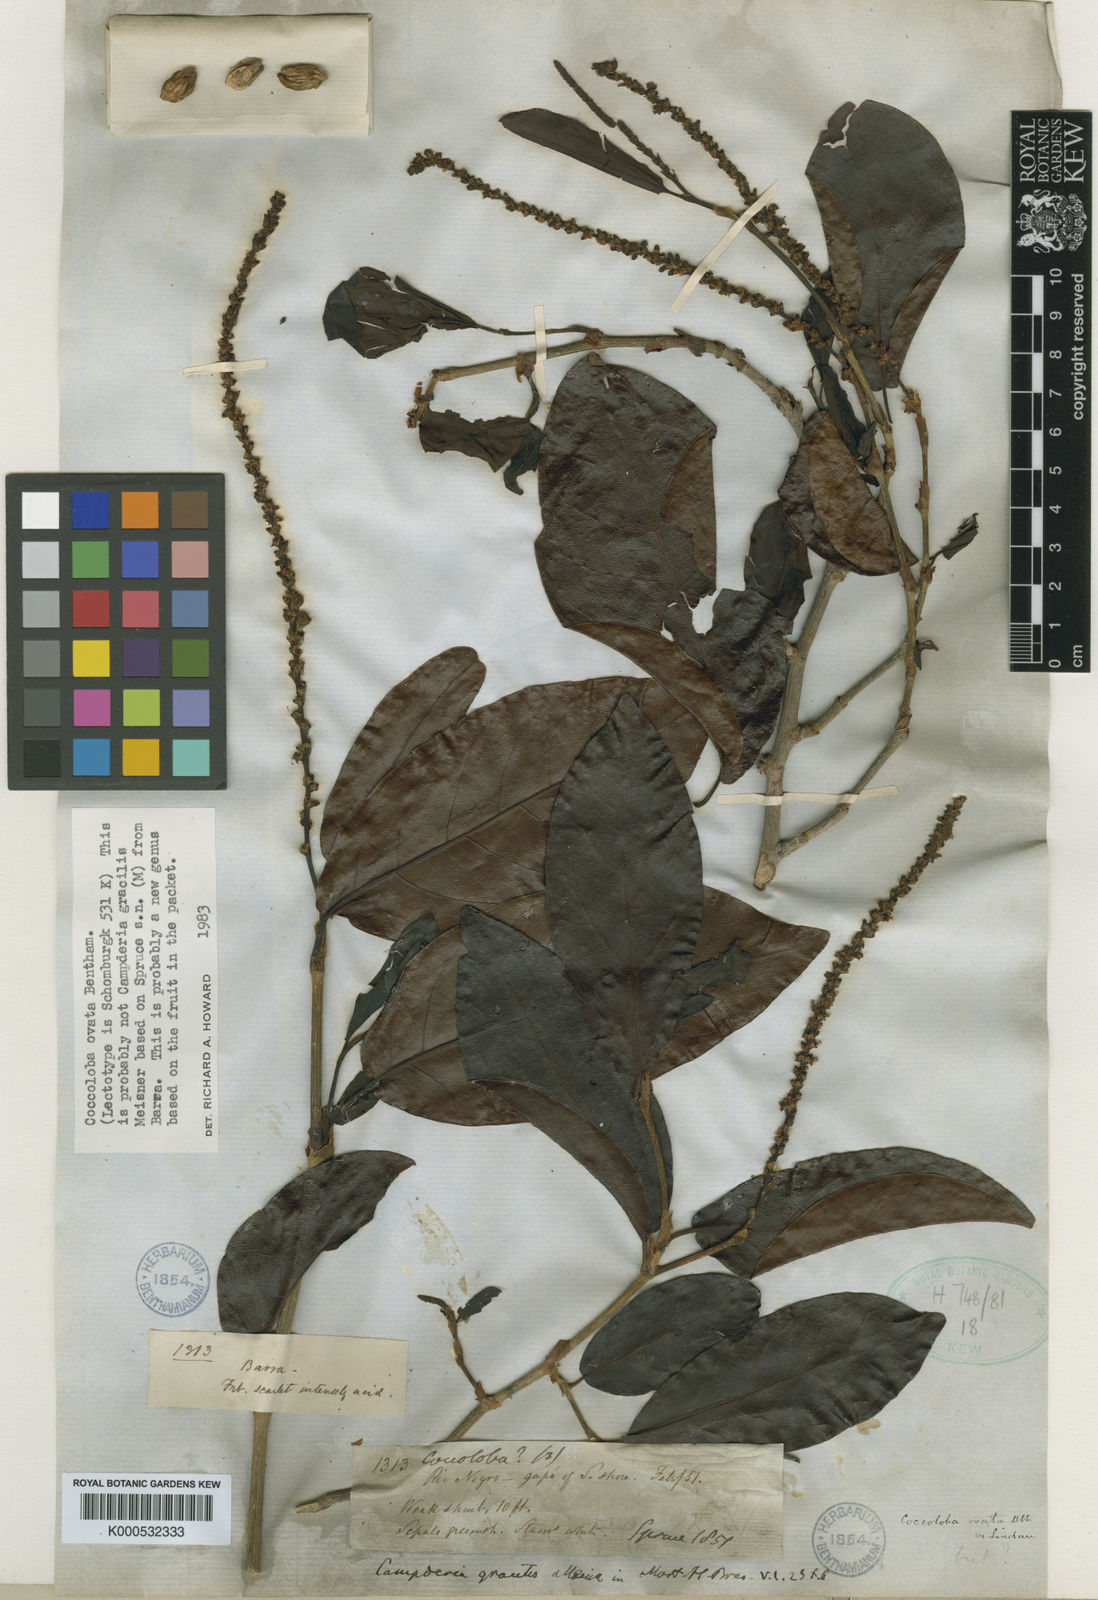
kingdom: Plantae
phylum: Tracheophyta
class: Magnoliopsida
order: Caryophyllales
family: Polygonaceae
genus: Coccoloba
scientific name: Coccoloba ovata
